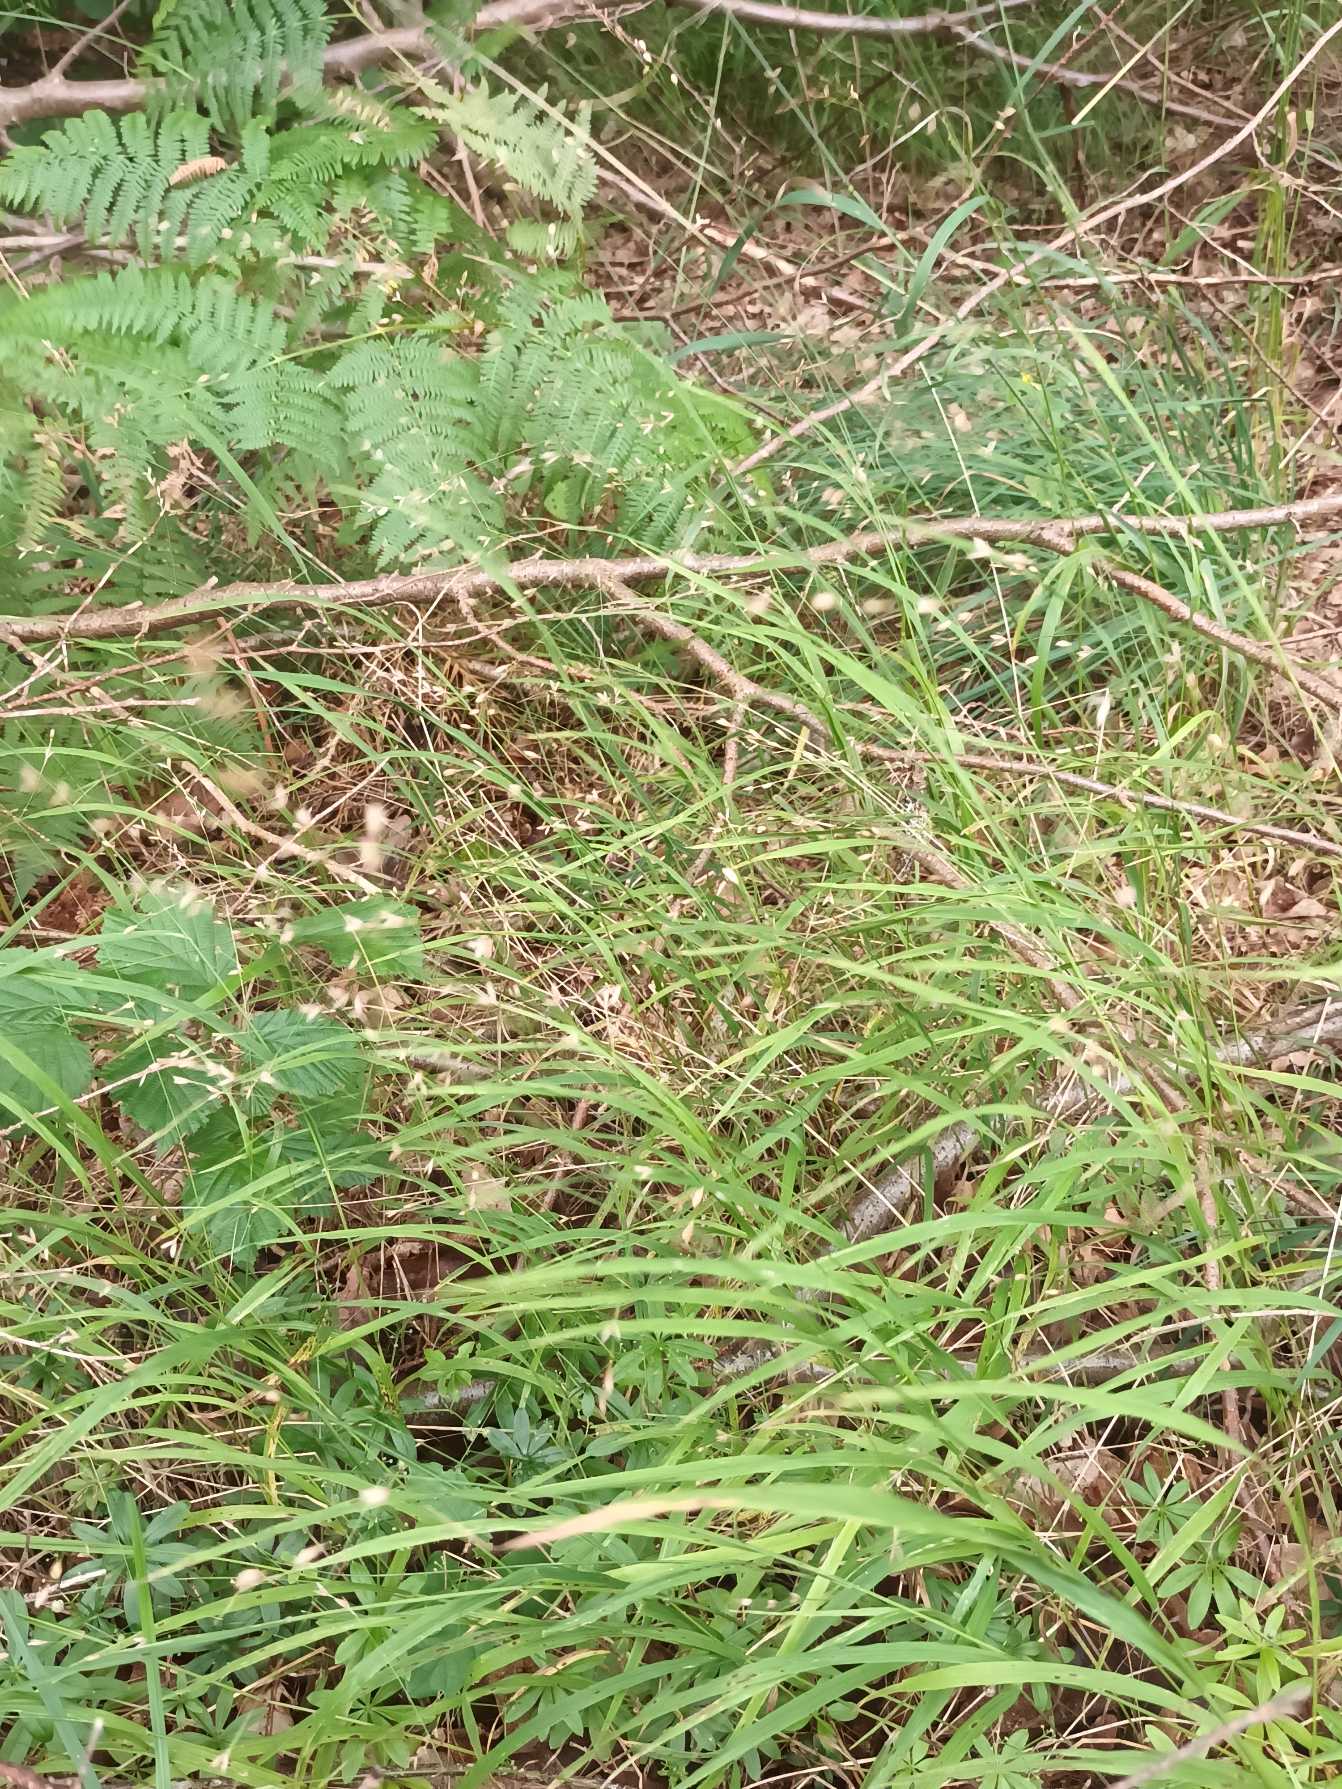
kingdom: Plantae
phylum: Tracheophyta
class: Liliopsida
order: Poales
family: Poaceae
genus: Melica
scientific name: Melica uniflora
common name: Enblomstret flitteraks
